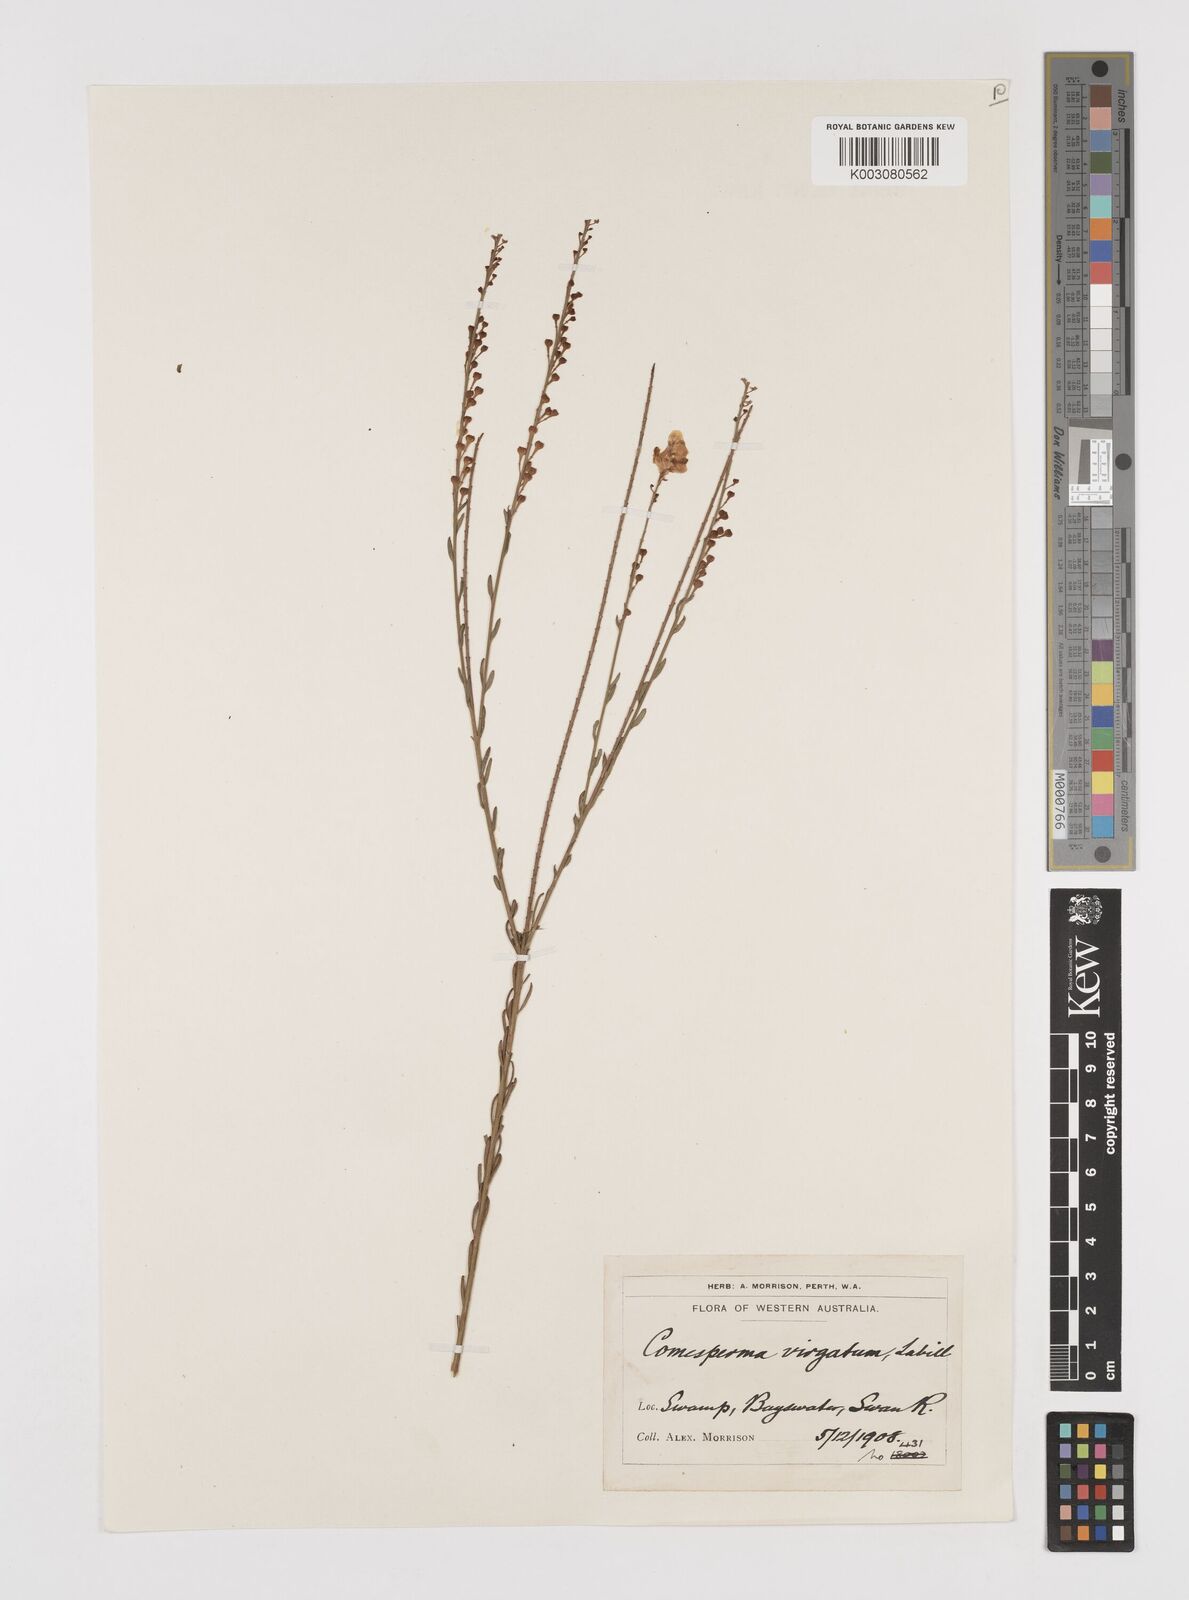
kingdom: Plantae
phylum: Tracheophyta
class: Magnoliopsida
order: Fabales
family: Polygalaceae
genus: Comesperma
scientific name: Comesperma virgatum
